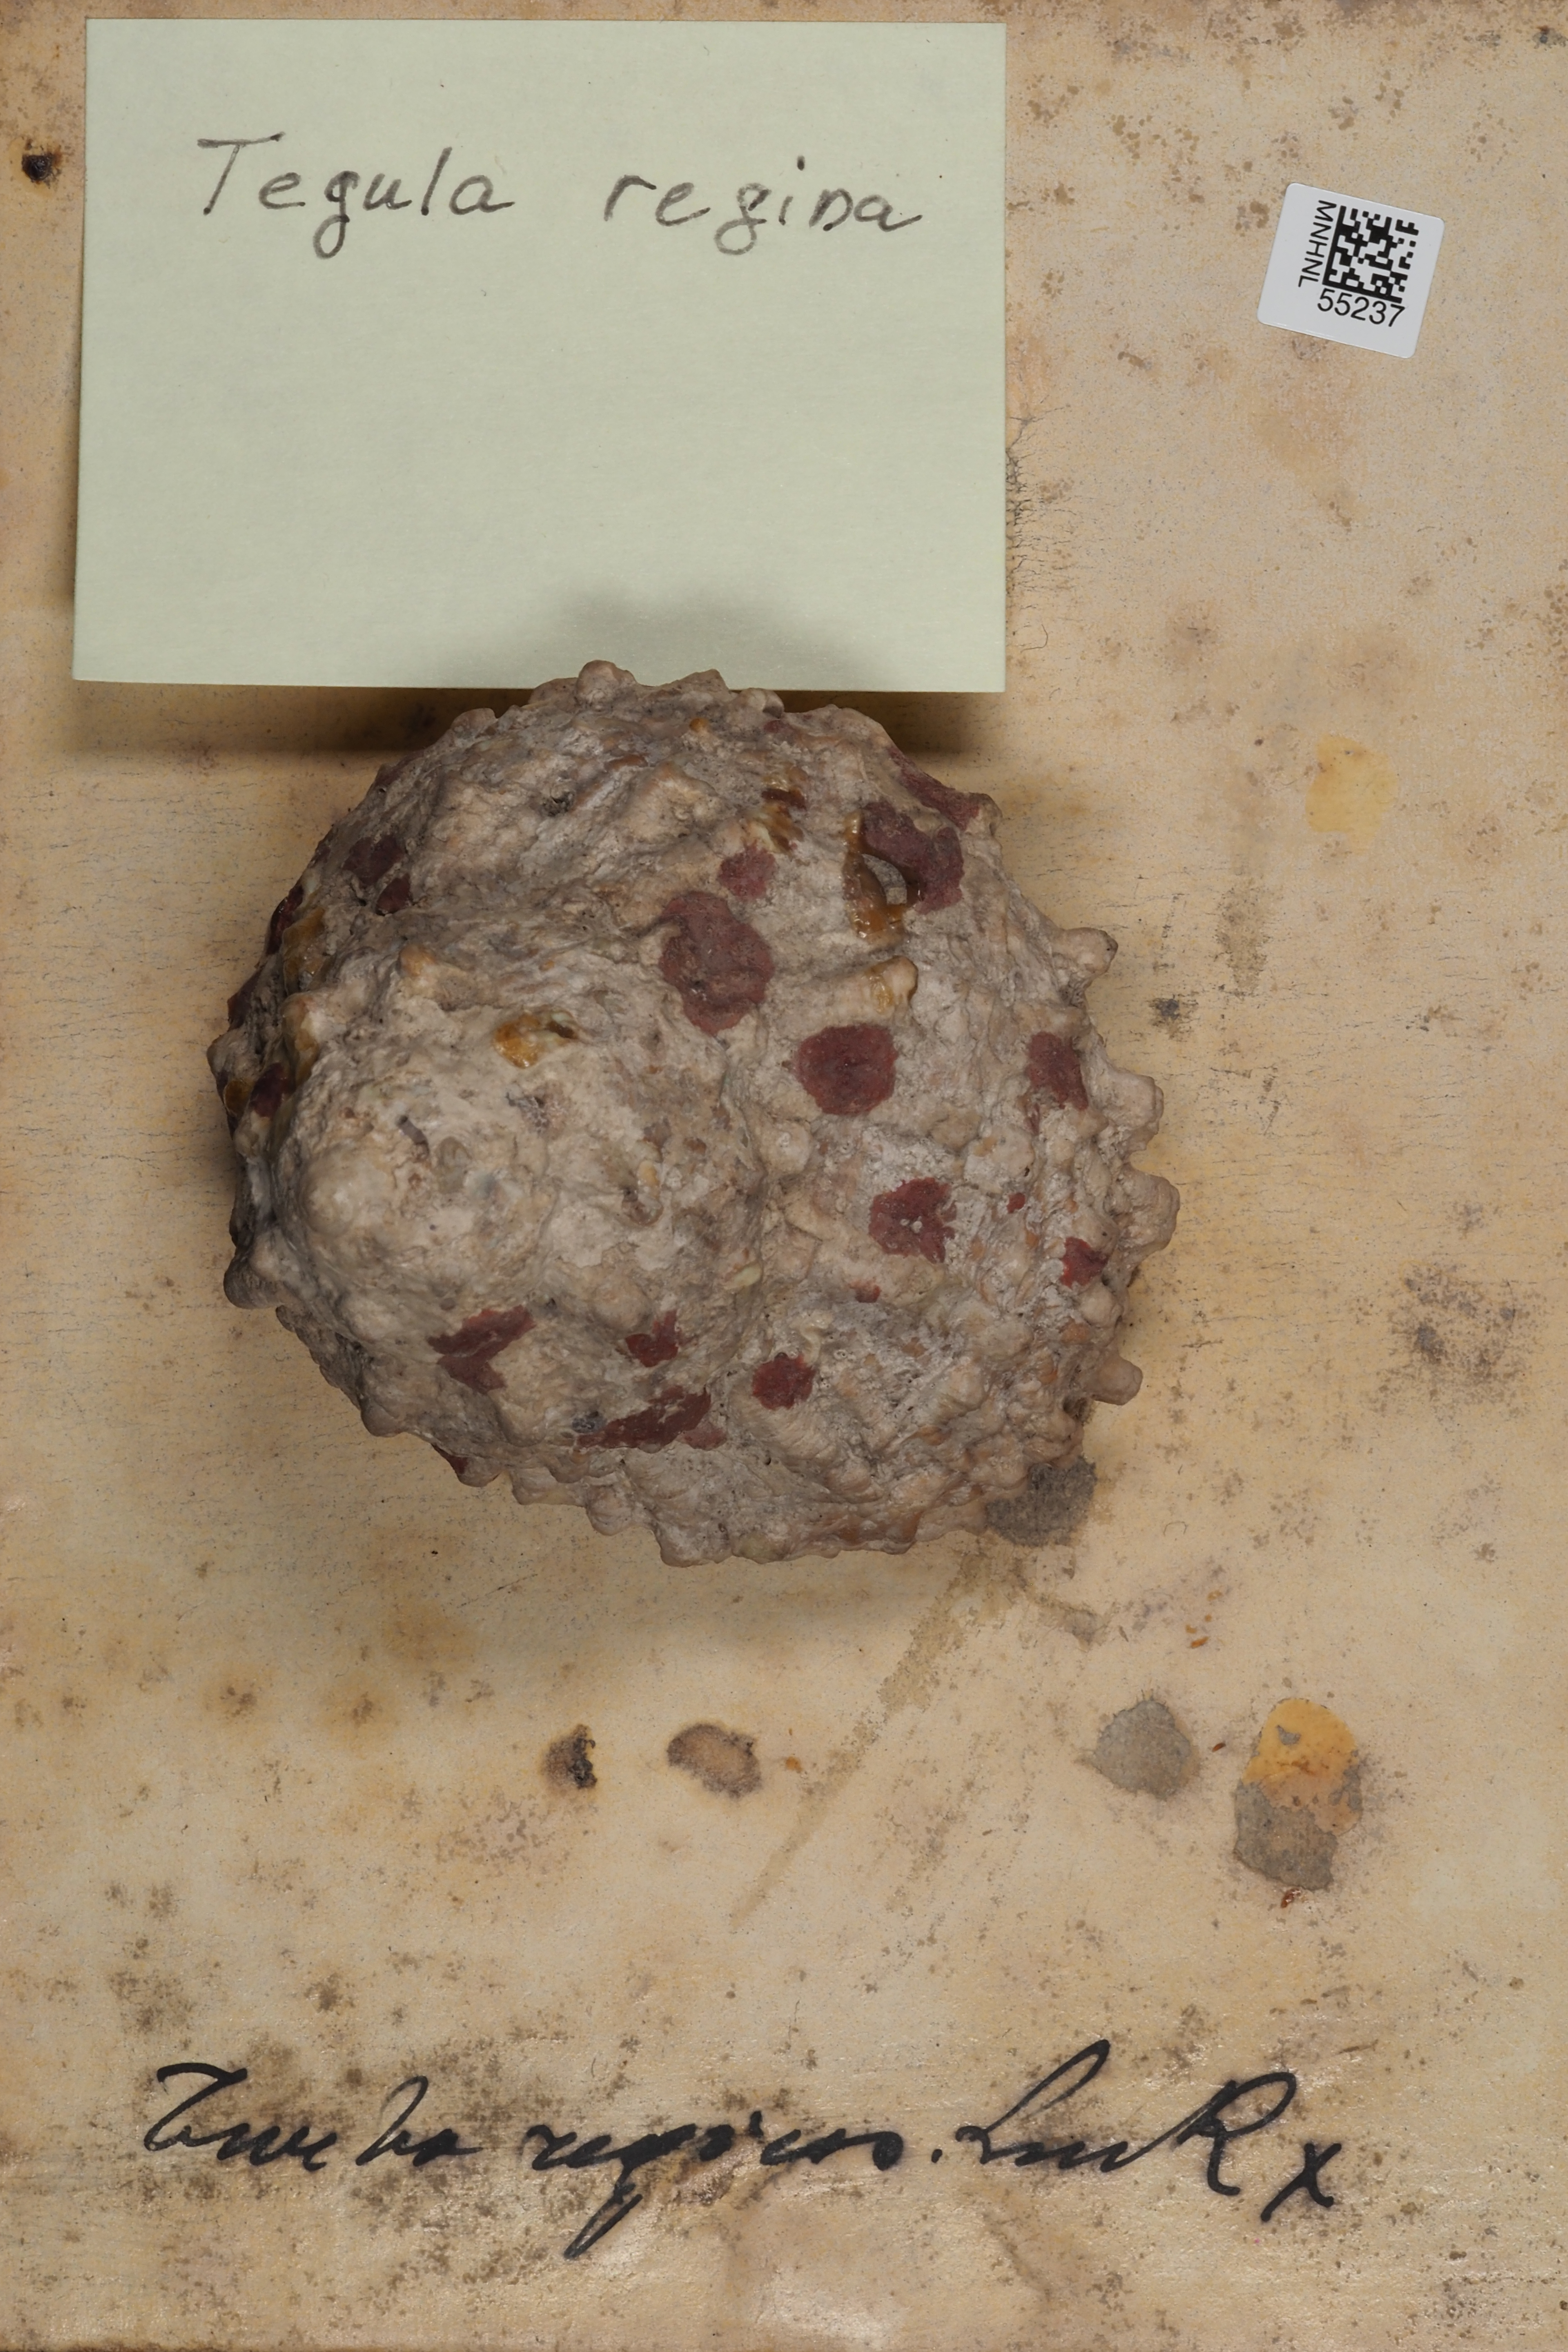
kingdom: Animalia
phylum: Mollusca
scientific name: Mollusca
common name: Mollusca
